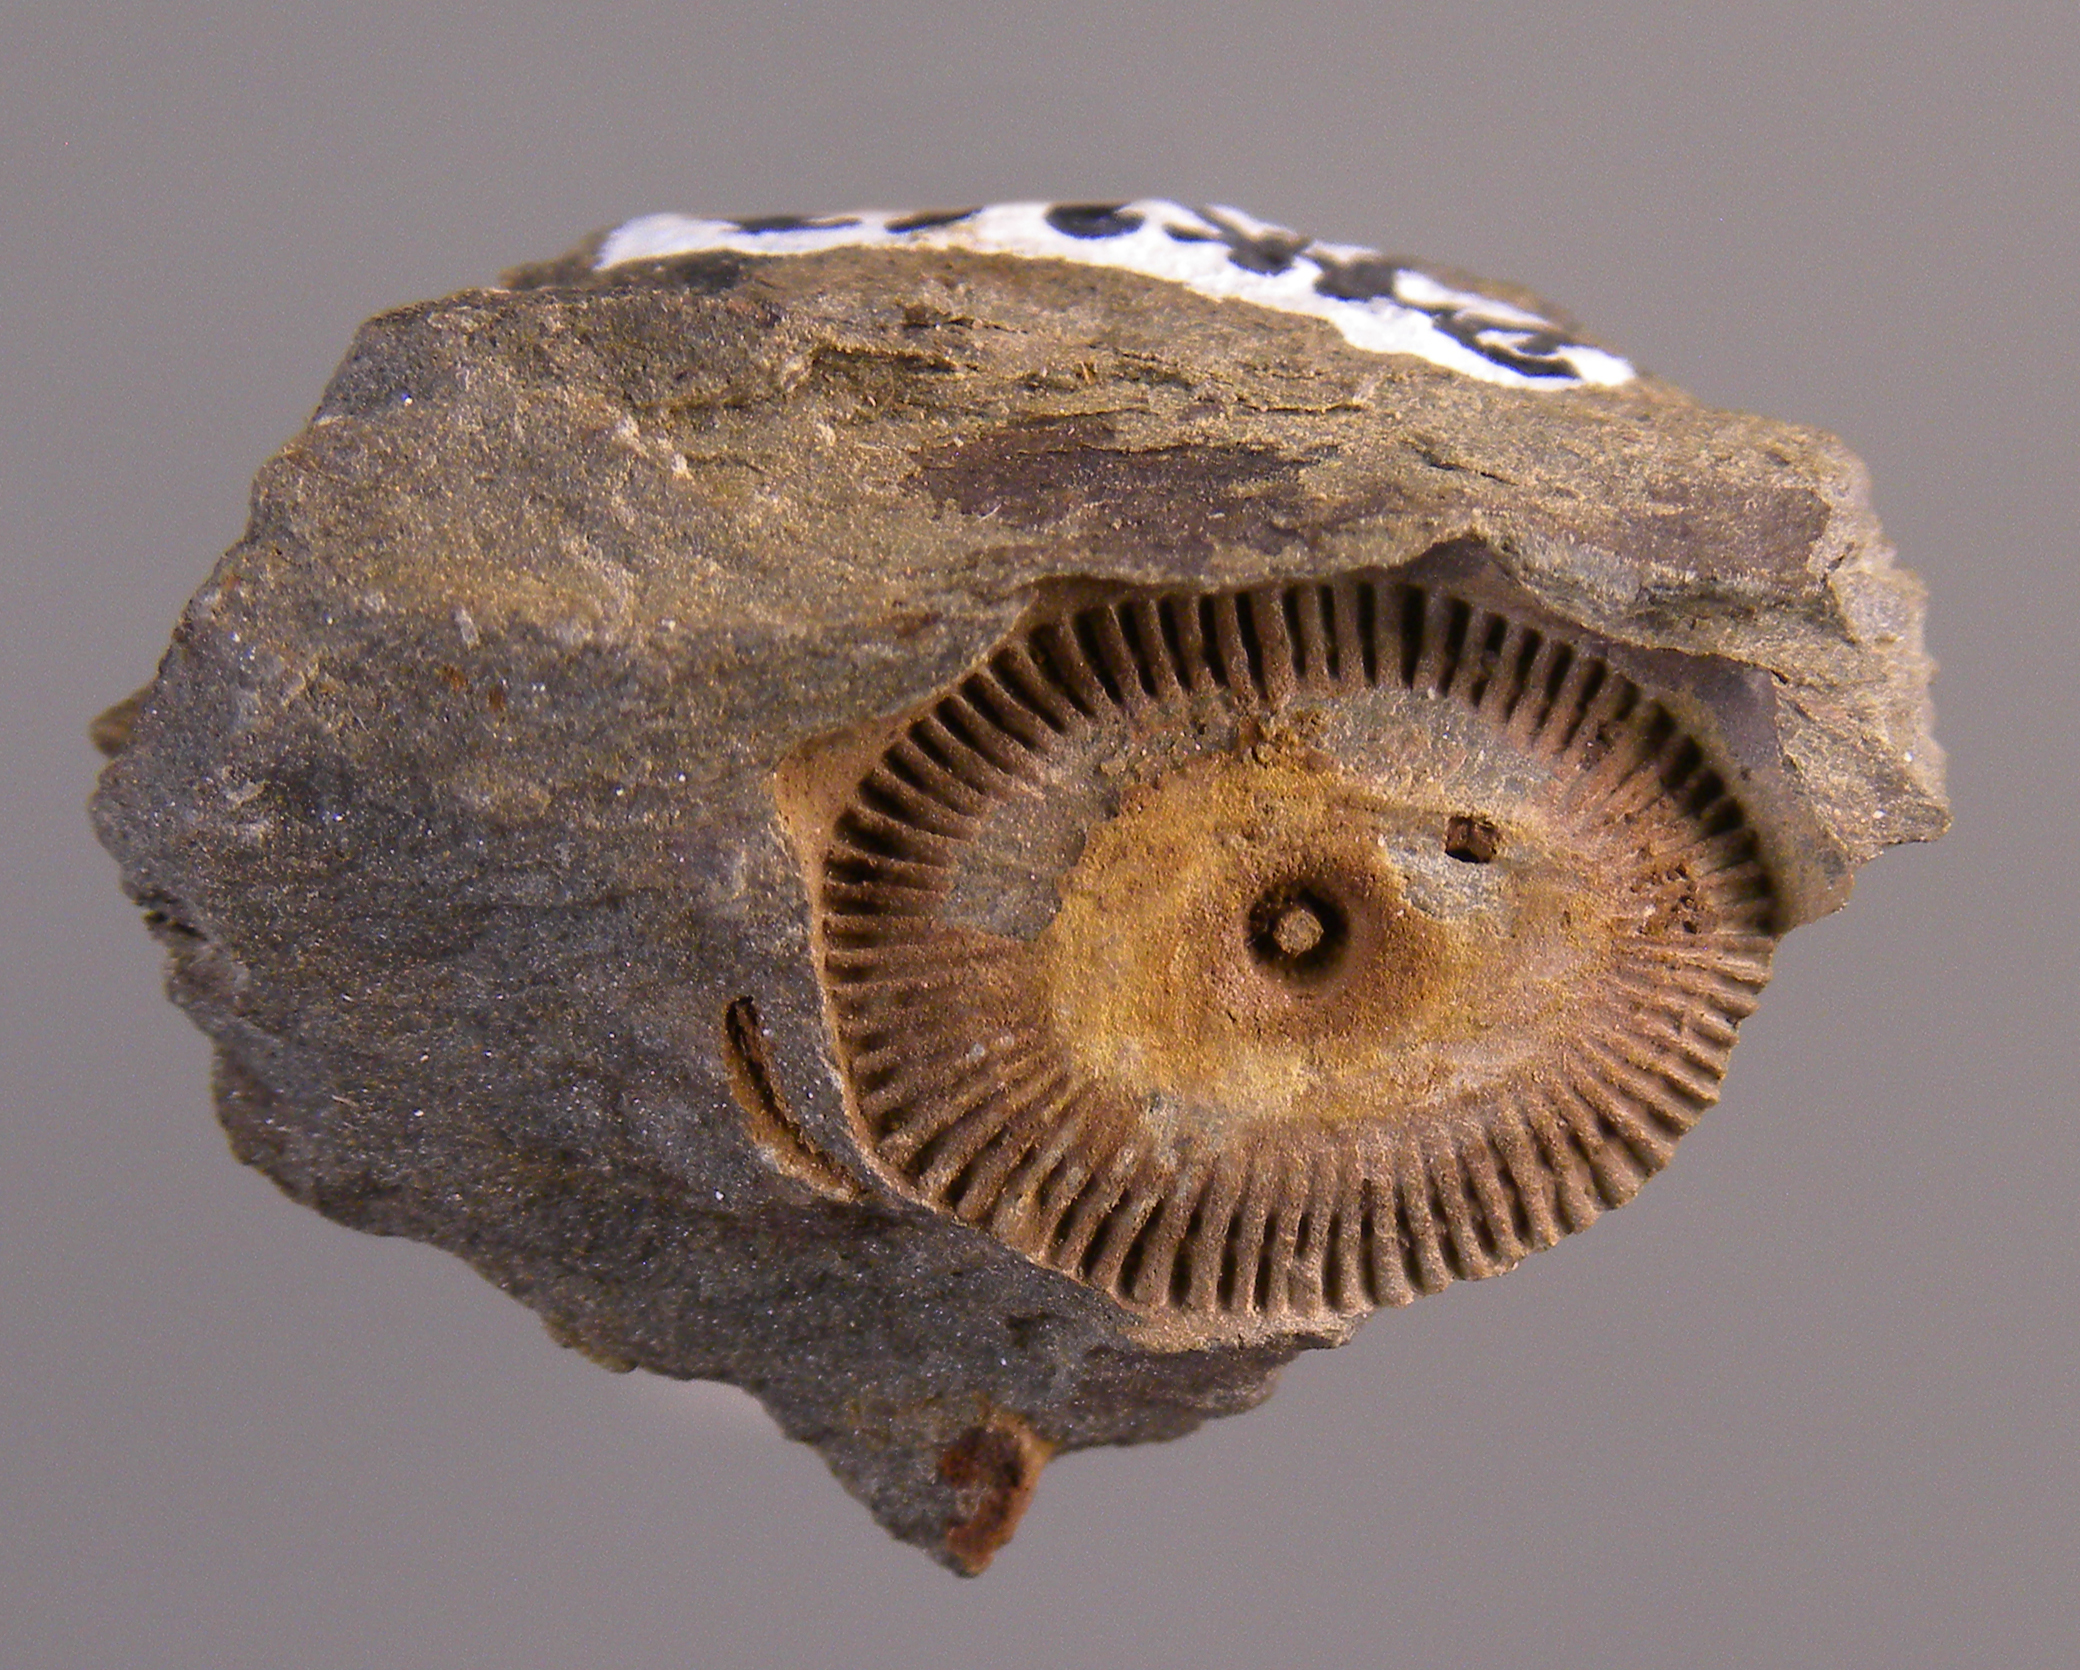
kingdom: Animalia
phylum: Echinodermata
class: Crinoidea
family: Melocrinitidae
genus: Ctenocrinus
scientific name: Ctenocrinus
